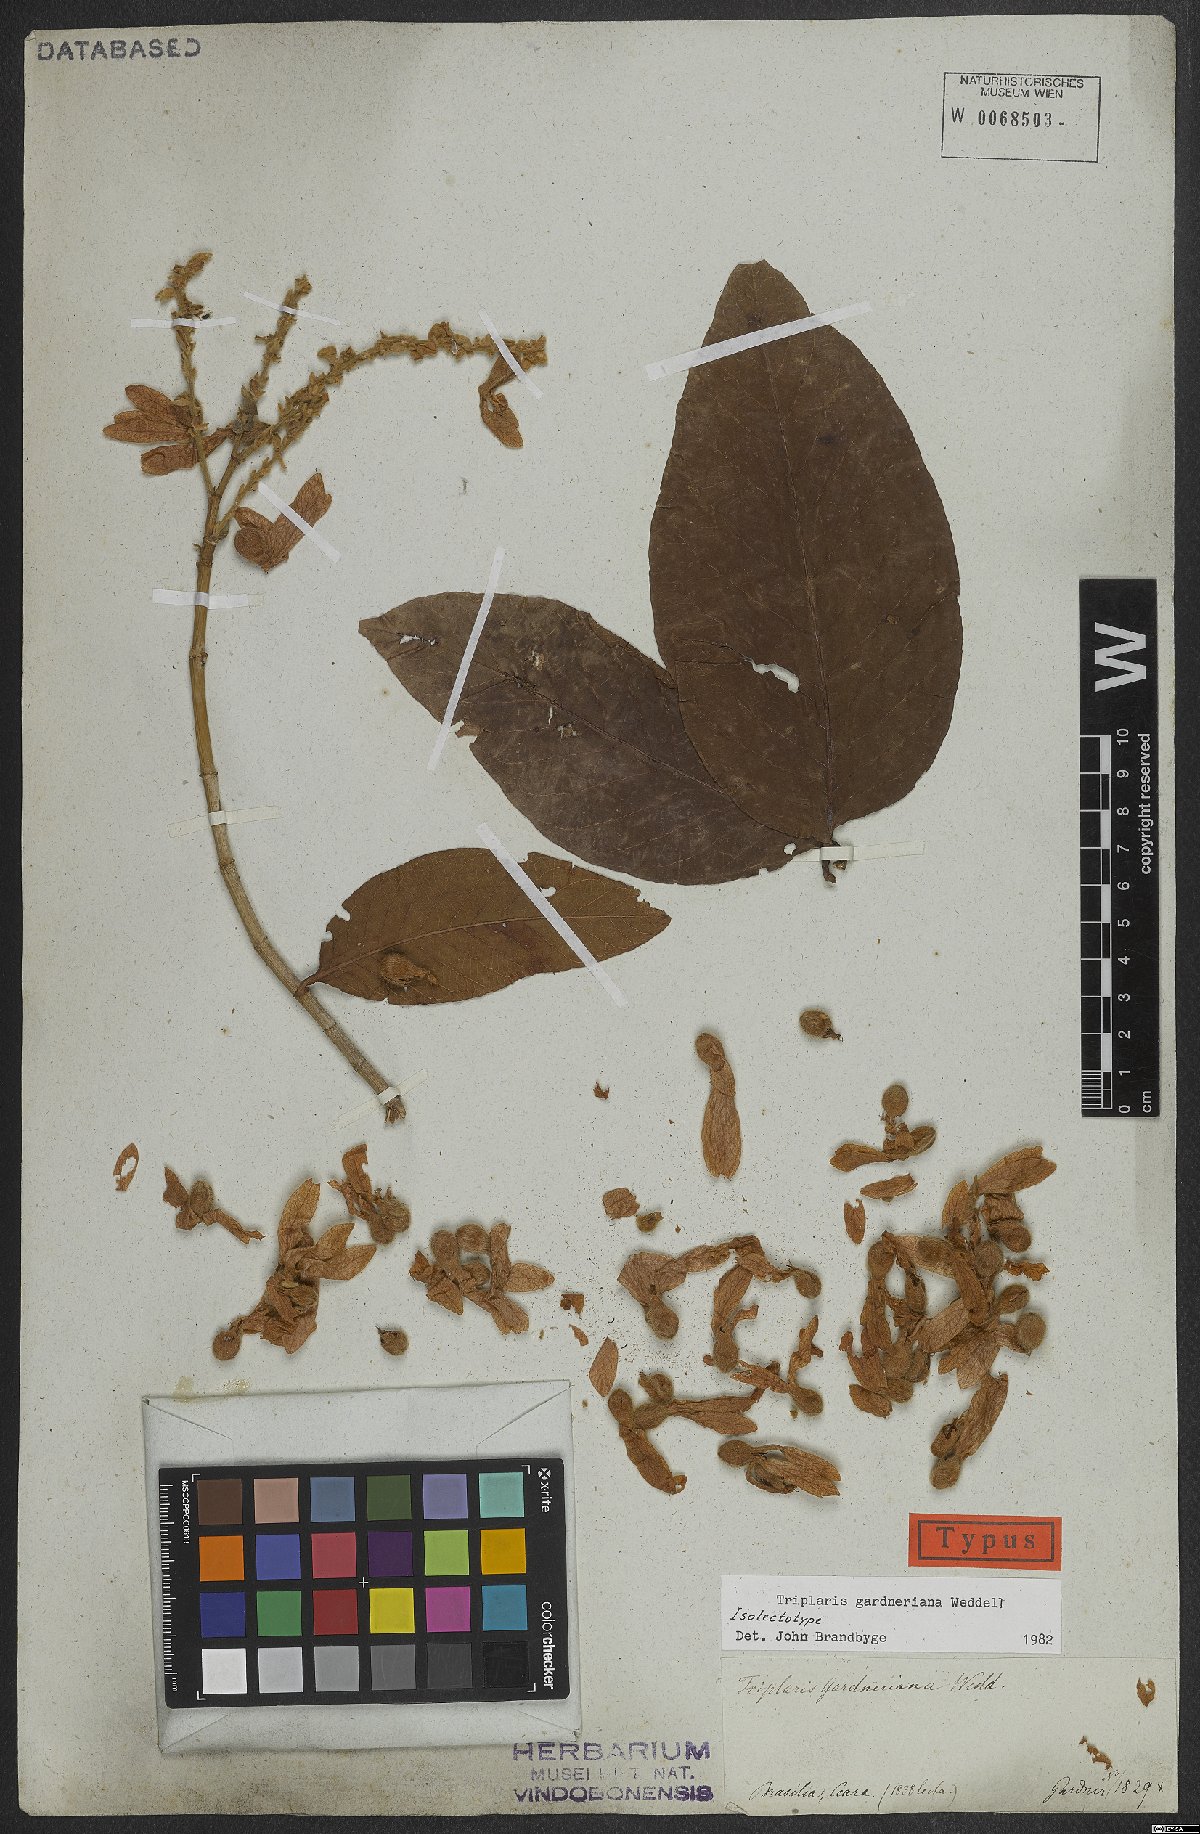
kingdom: Plantae
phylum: Tracheophyta
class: Magnoliopsida
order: Caryophyllales
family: Polygonaceae
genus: Triplaris
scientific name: Triplaris gardneriana
